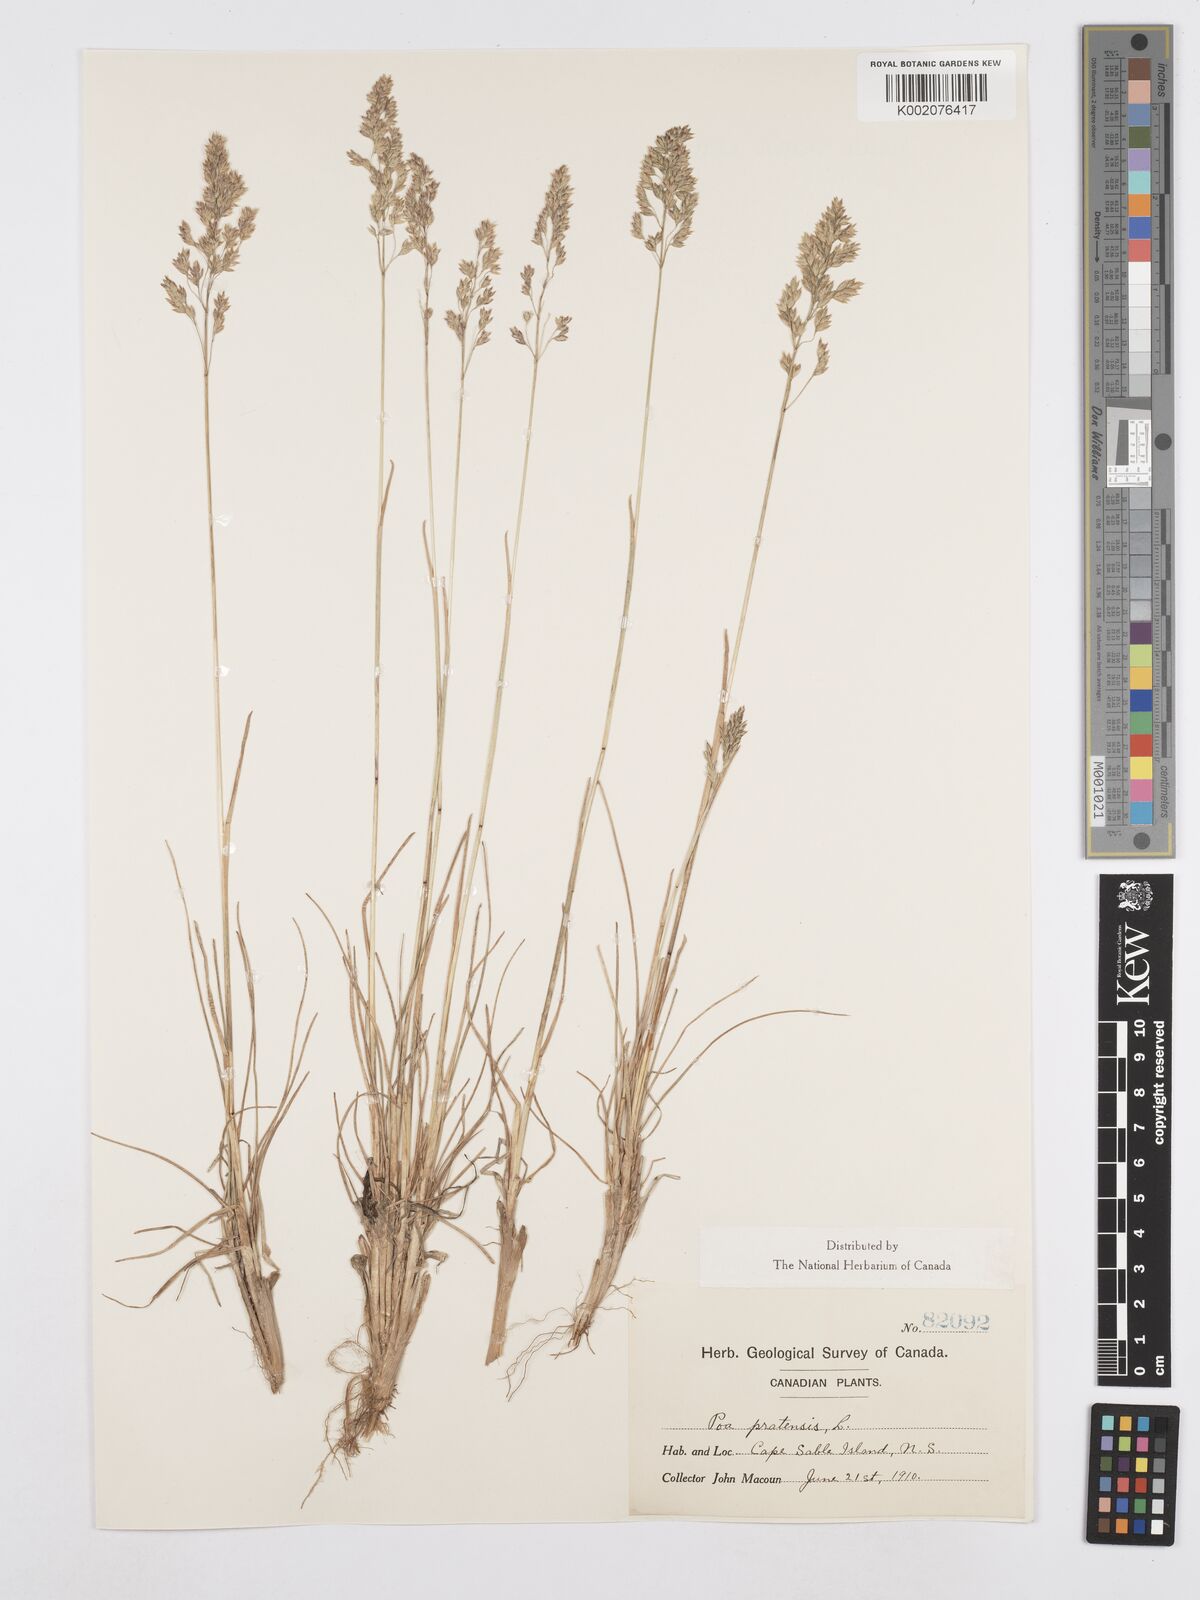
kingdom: Plantae
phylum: Tracheophyta
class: Liliopsida
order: Poales
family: Poaceae
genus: Poa
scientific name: Poa angustifolia
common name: Narrow-leaved meadow-grass
